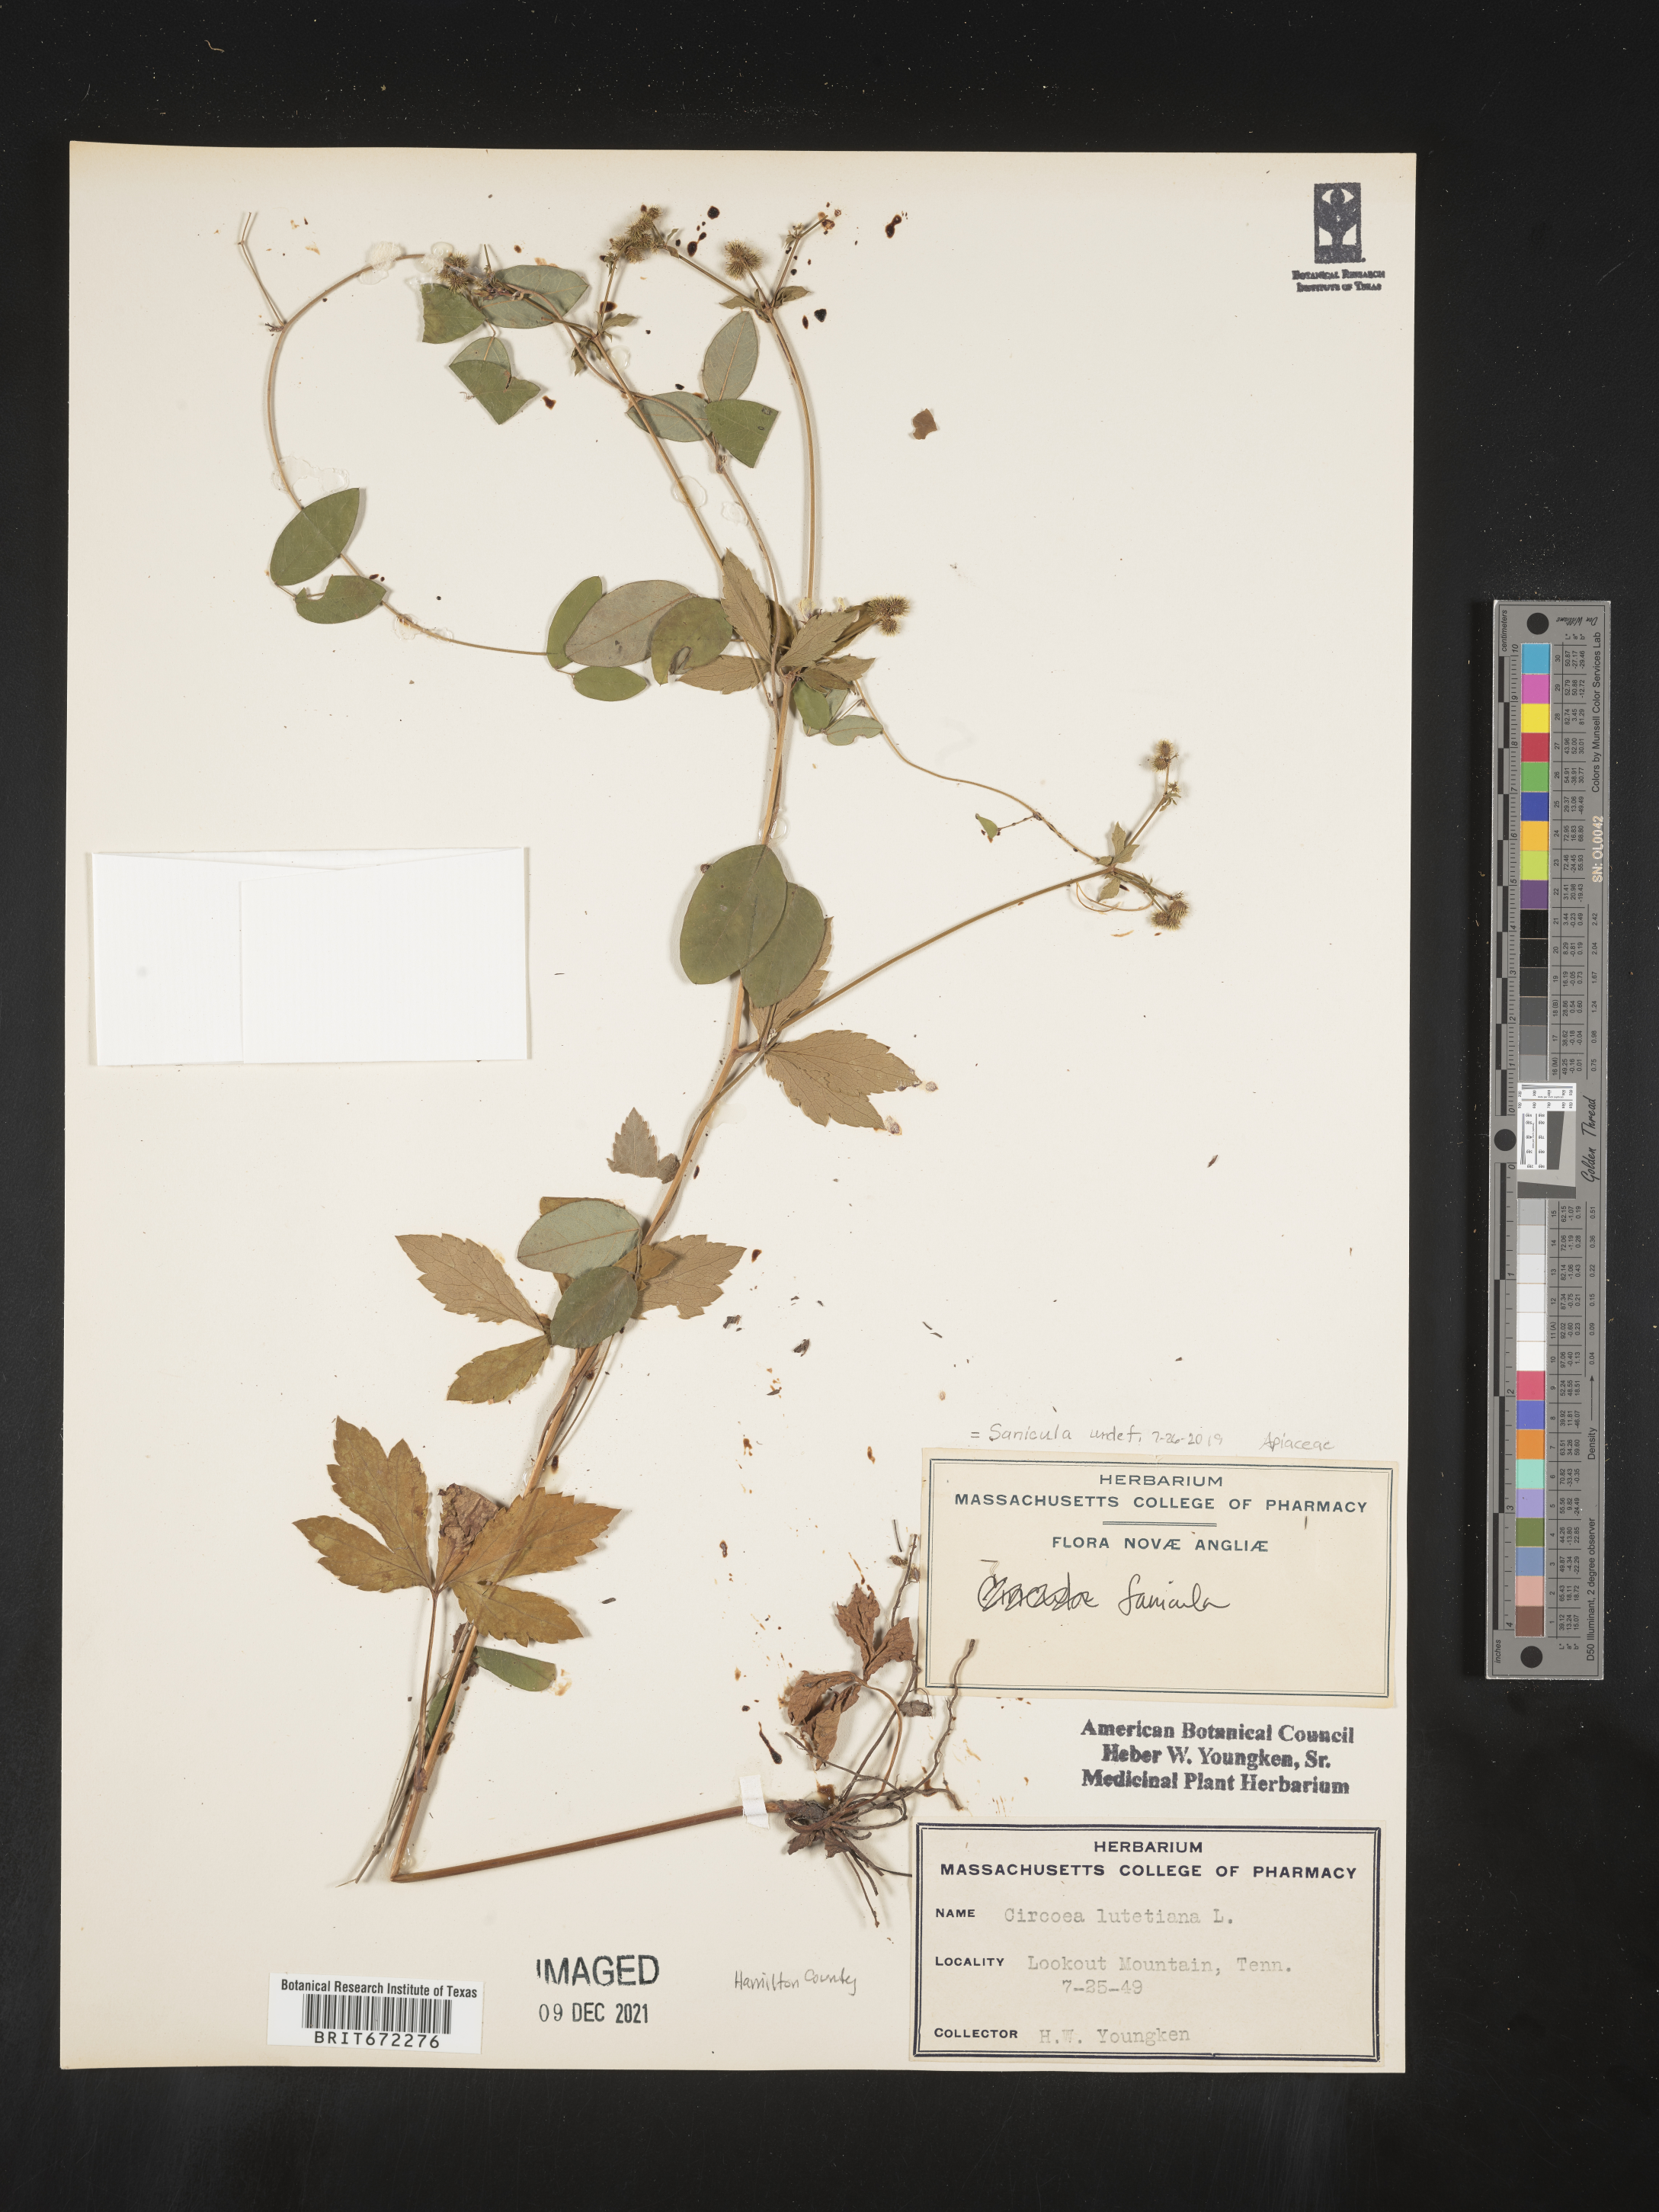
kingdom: Plantae
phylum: Tracheophyta
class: Magnoliopsida
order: Apiales
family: Apiaceae
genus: Sanicula
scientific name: Sanicula
